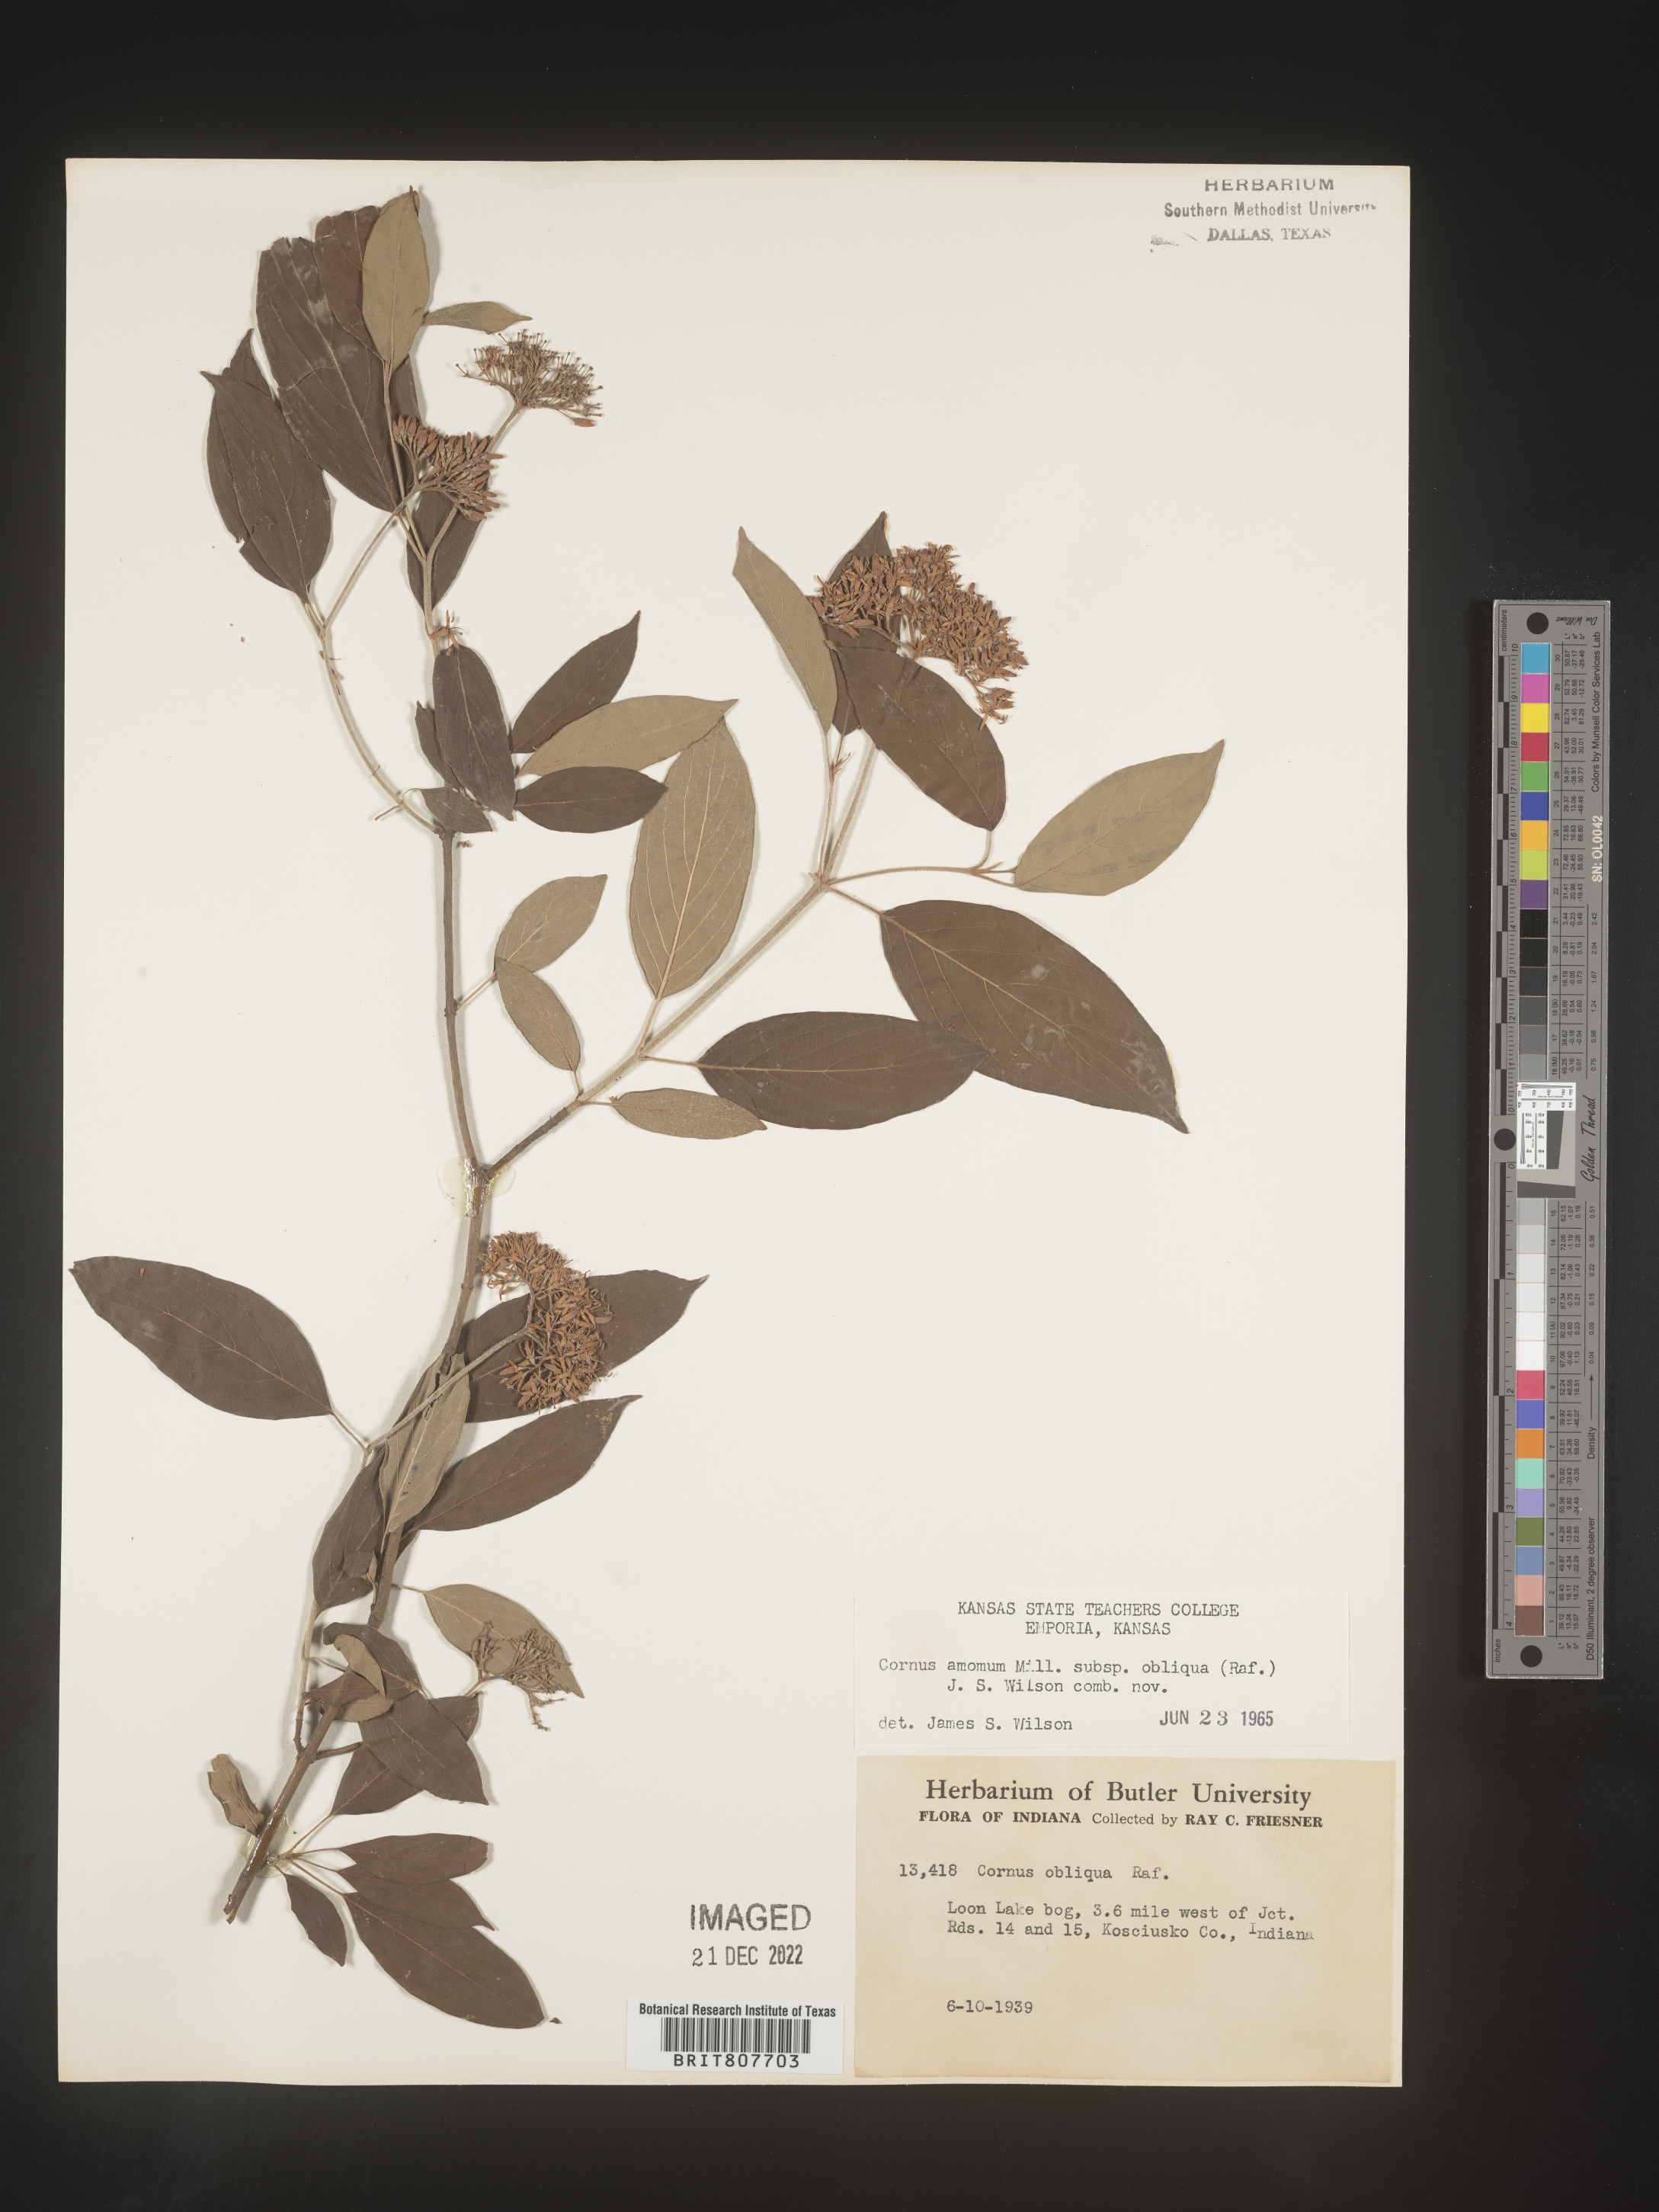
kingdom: Plantae
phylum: Tracheophyta
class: Magnoliopsida
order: Cornales
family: Cornaceae
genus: Cornus
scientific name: Cornus obliqua
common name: Pale dogwood
